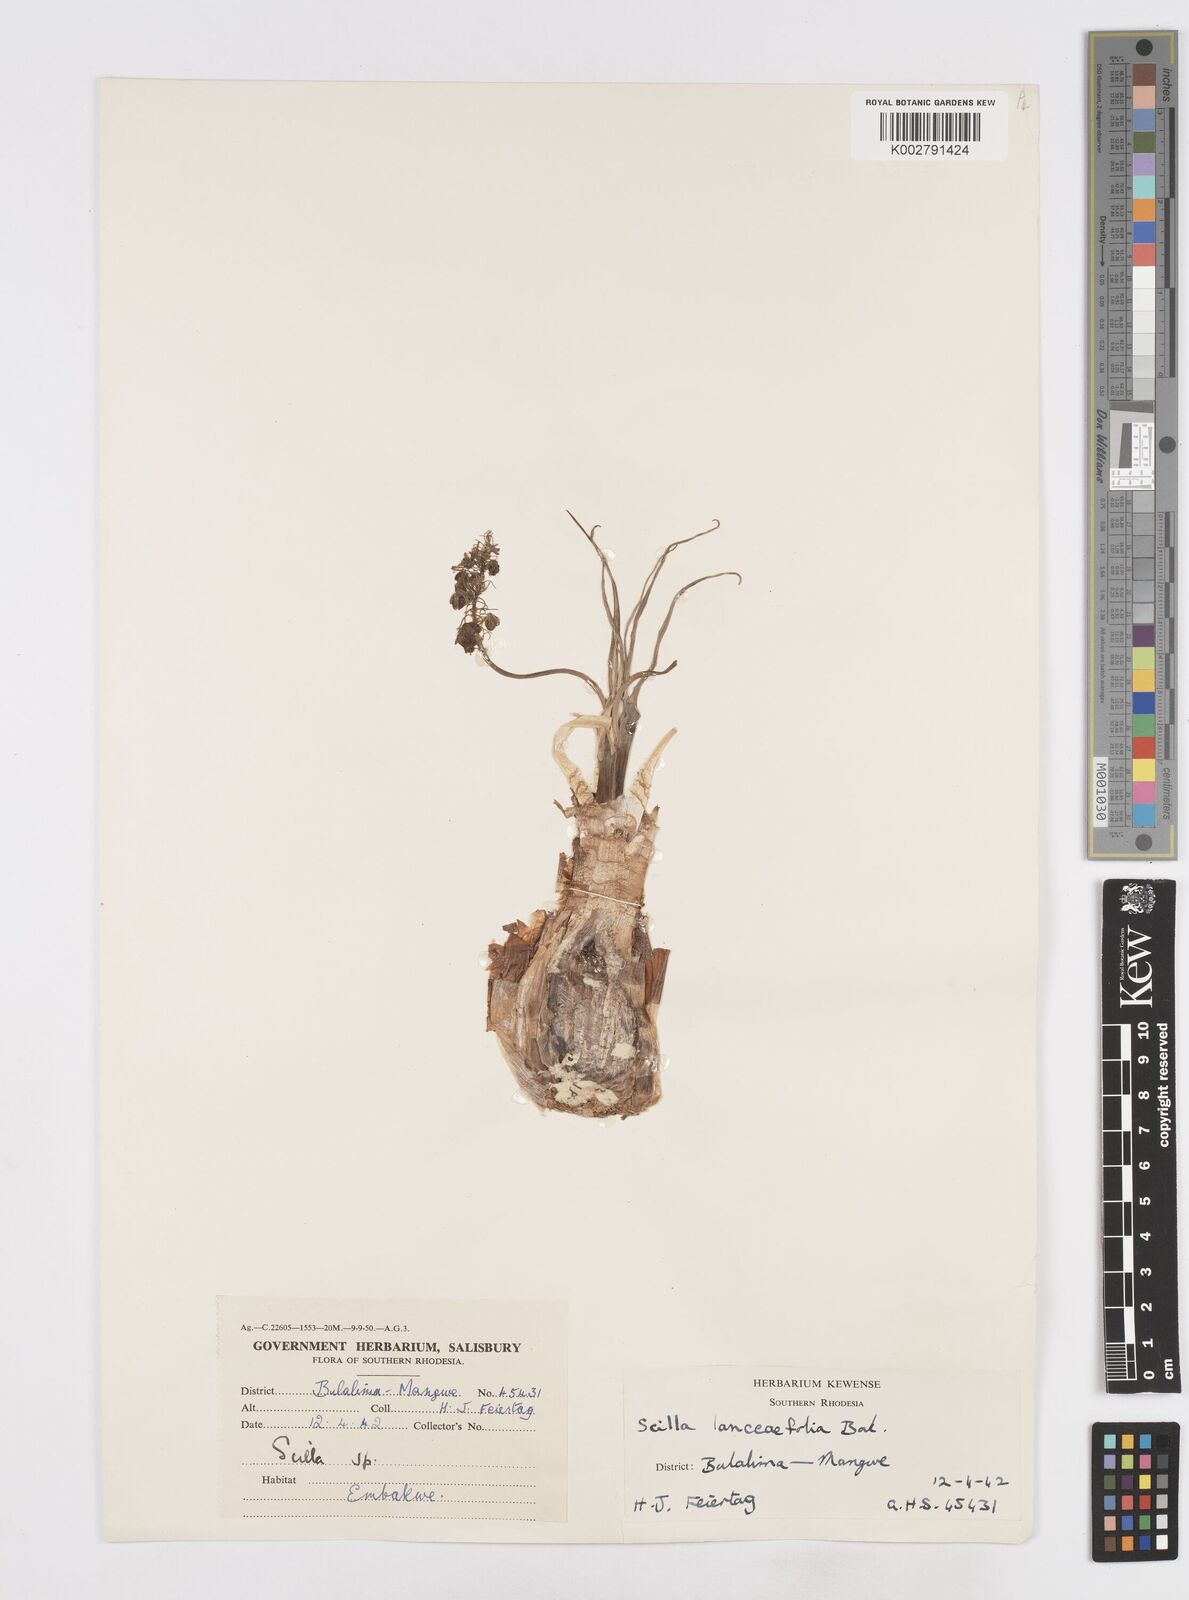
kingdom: Plantae
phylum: Tracheophyta
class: Liliopsida
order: Asparagales
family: Asparagaceae
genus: Ledebouria
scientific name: Ledebouria revoluta
